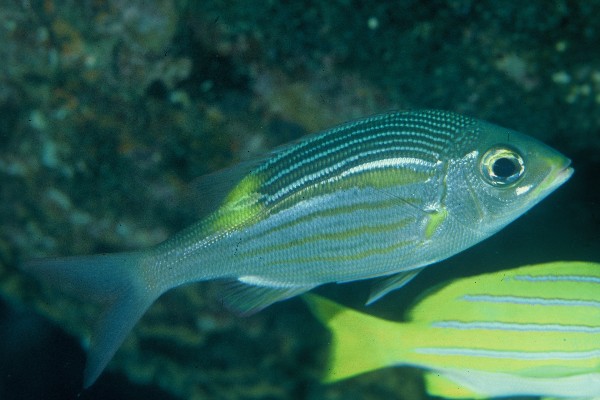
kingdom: Animalia
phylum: Chordata
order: Perciformes
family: Lethrinidae
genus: Gnathodentex
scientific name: Gnathodentex aureolineatus
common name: Gold-lined sea bream
